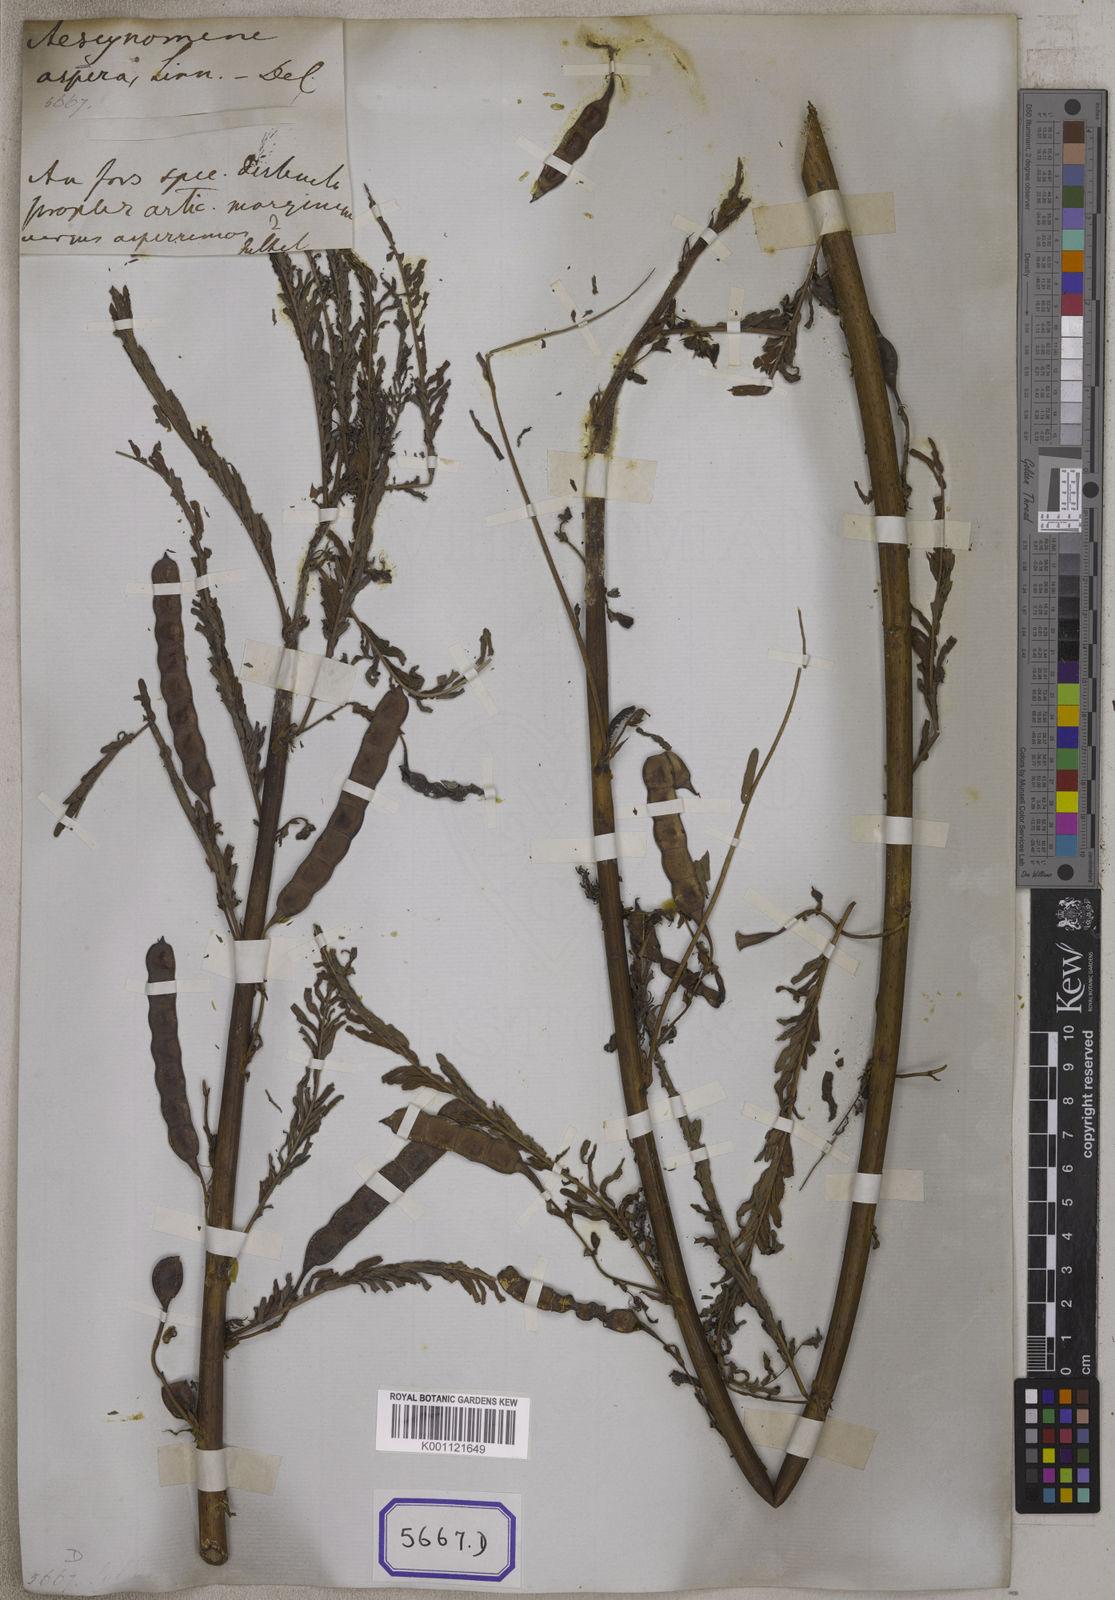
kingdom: Plantae
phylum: Tracheophyta
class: Magnoliopsida
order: Fabales
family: Fabaceae
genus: Aeschynomene
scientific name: Aeschynomene aspera
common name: Pith plant
